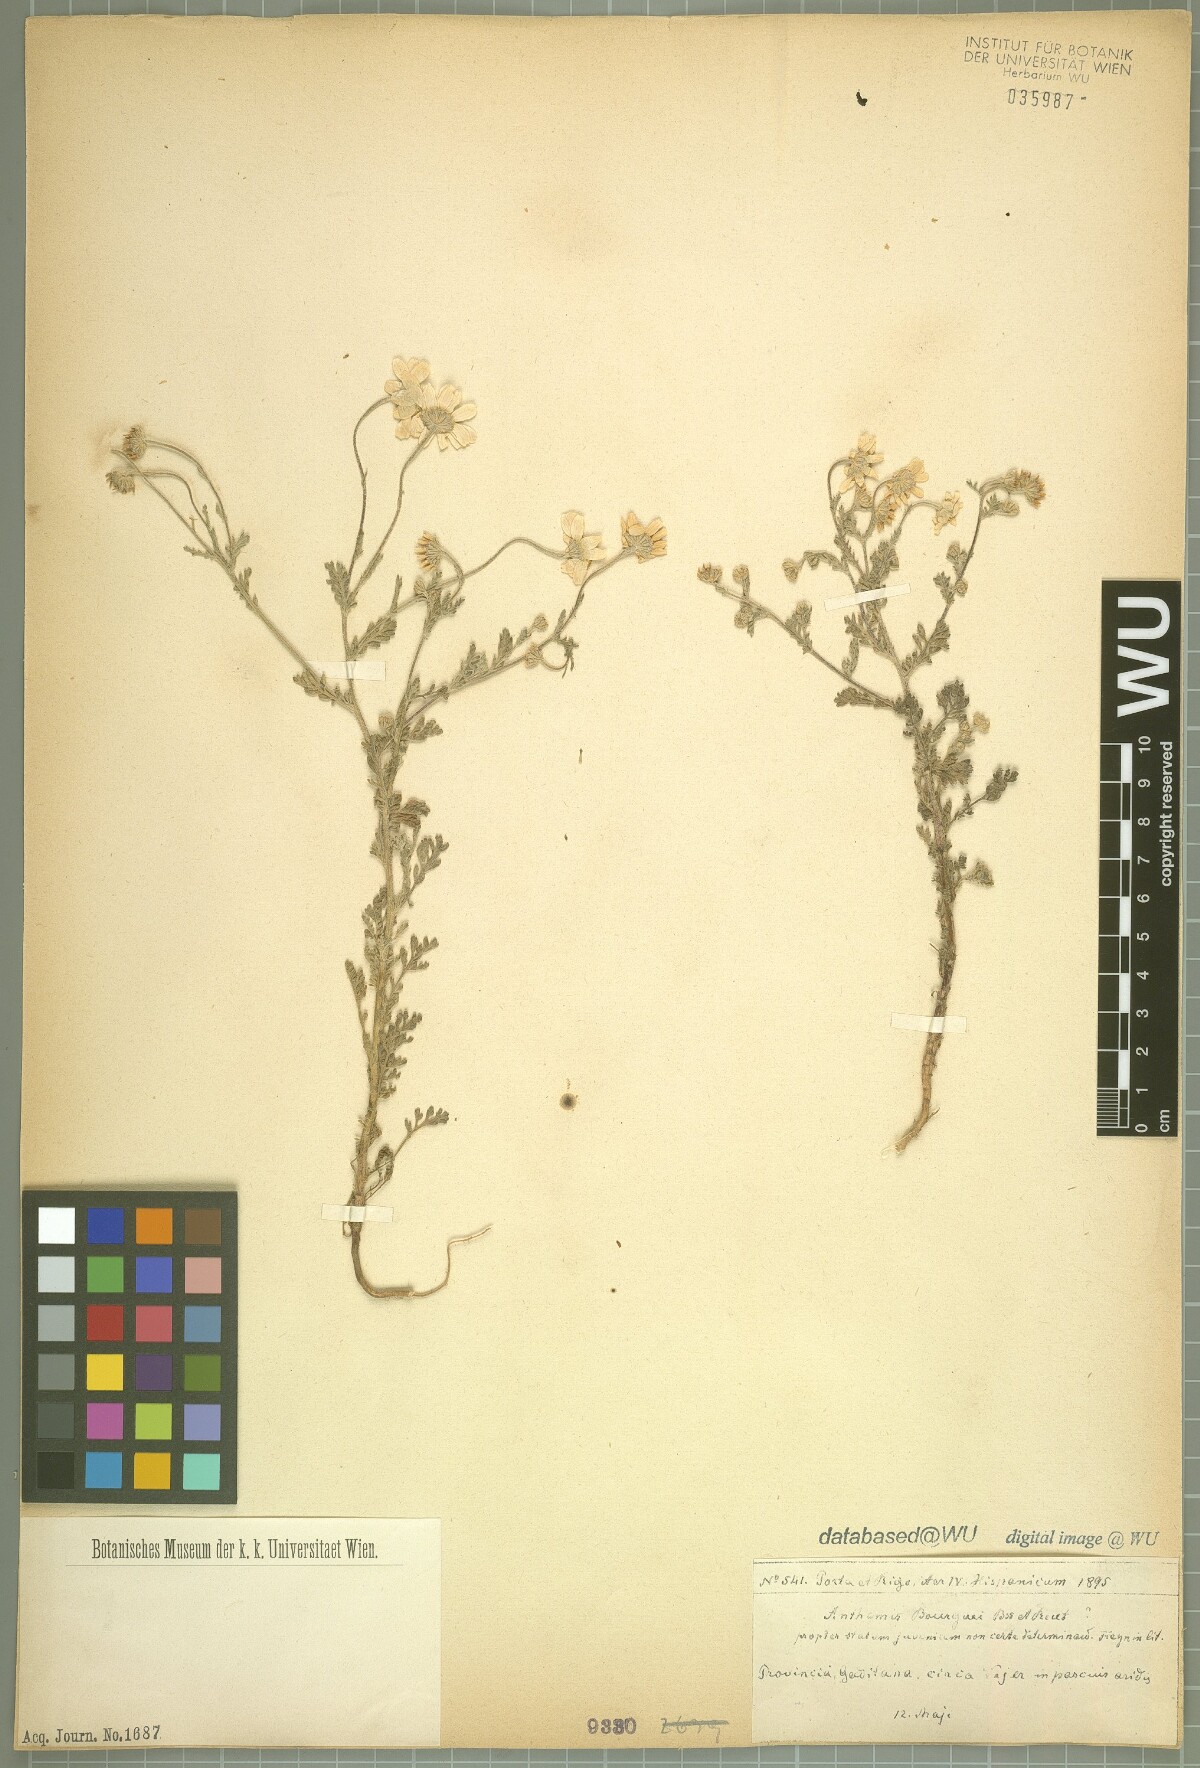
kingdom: Plantae
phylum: Tracheophyta
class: Magnoliopsida
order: Asterales
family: Asteraceae
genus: Anthemis
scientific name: Anthemis bourgaei
